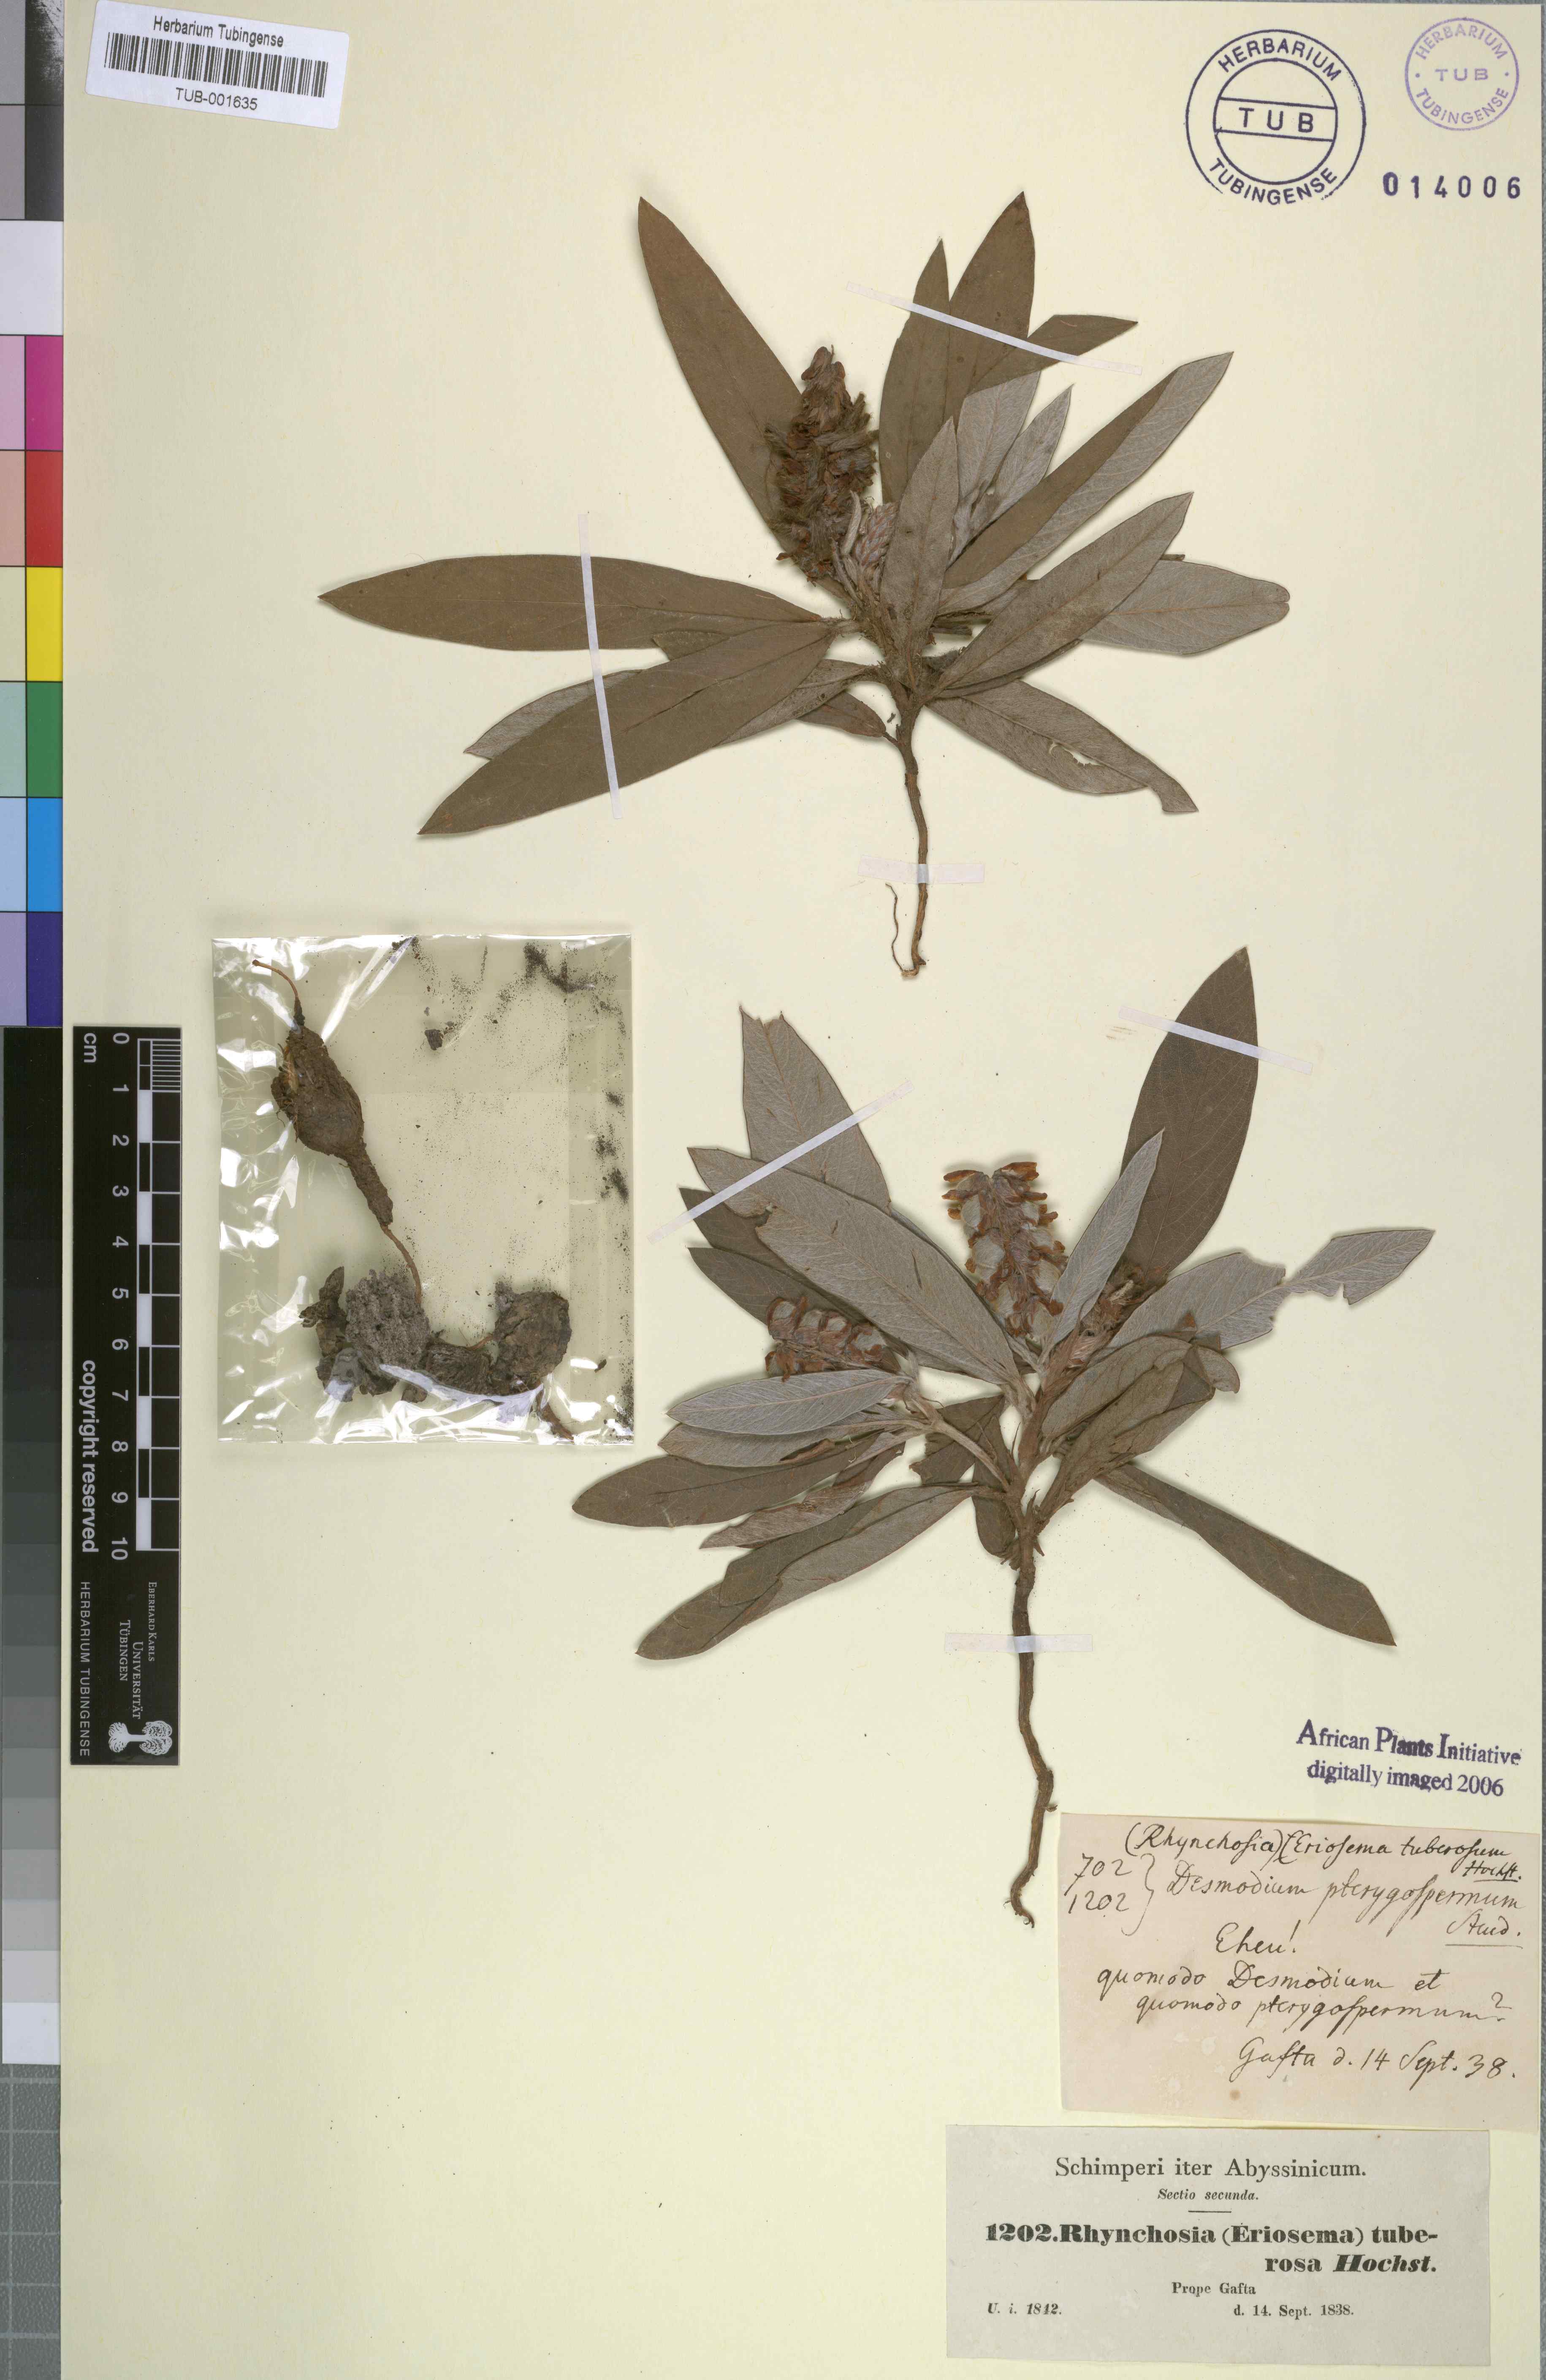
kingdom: Plantae
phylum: Tracheophyta
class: Magnoliopsida
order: Fabales
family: Fabaceae
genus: Eriosema
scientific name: Eriosema tuberosum
